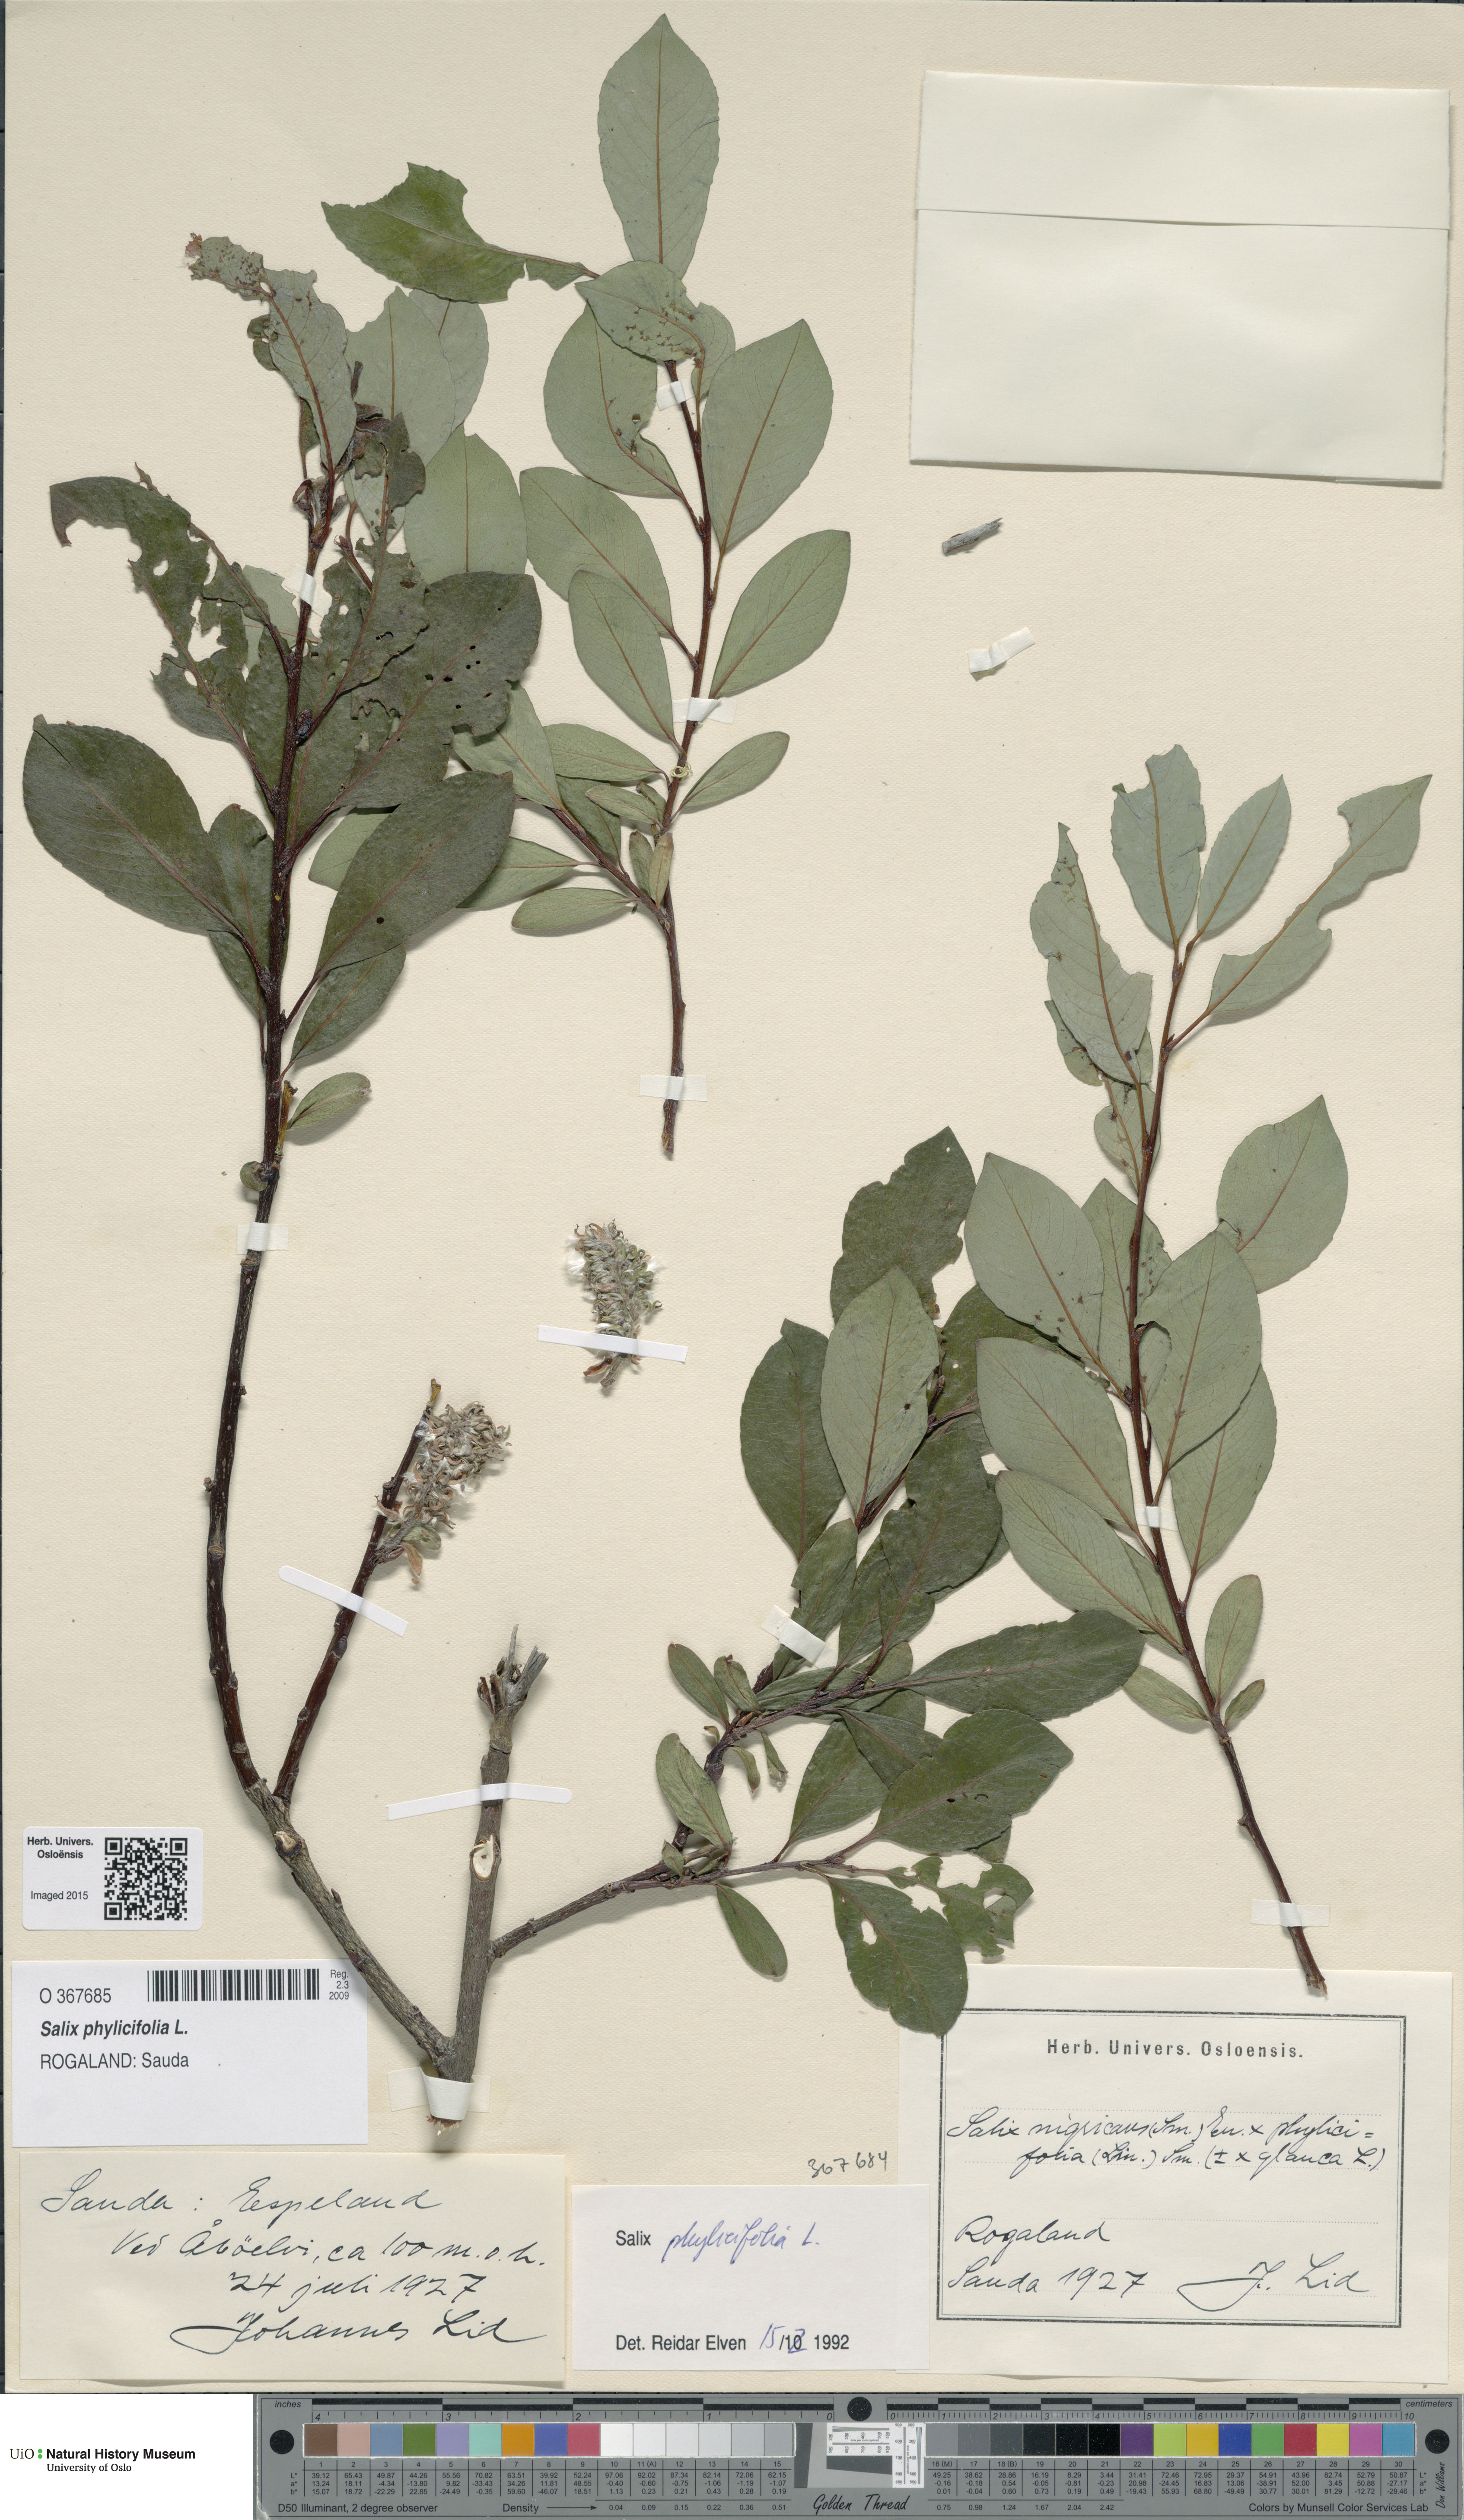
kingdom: Plantae
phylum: Tracheophyta
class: Magnoliopsida
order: Malpighiales
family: Salicaceae
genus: Salix
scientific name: Salix phylicifolia
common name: Tea-leaved willow
